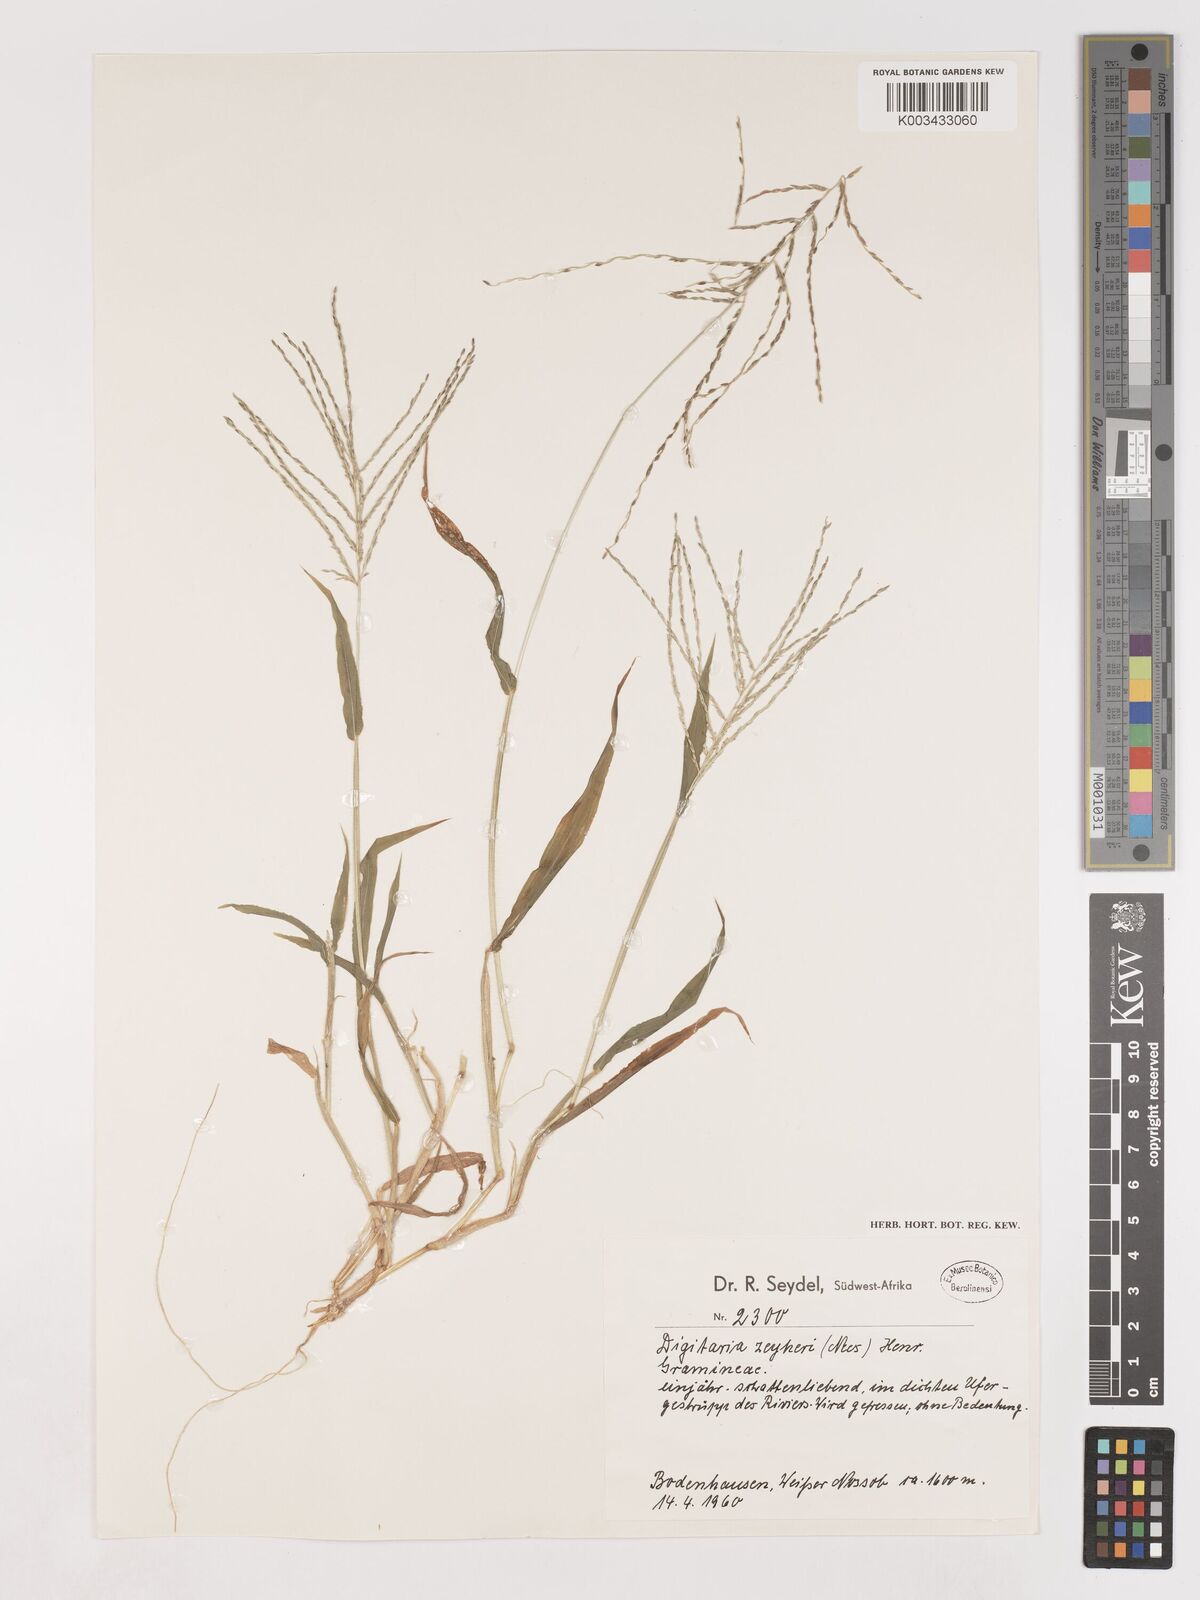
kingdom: Plantae
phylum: Tracheophyta
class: Liliopsida
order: Poales
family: Poaceae
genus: Digitaria
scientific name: Digitaria velutina
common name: Long-plume finger grass
